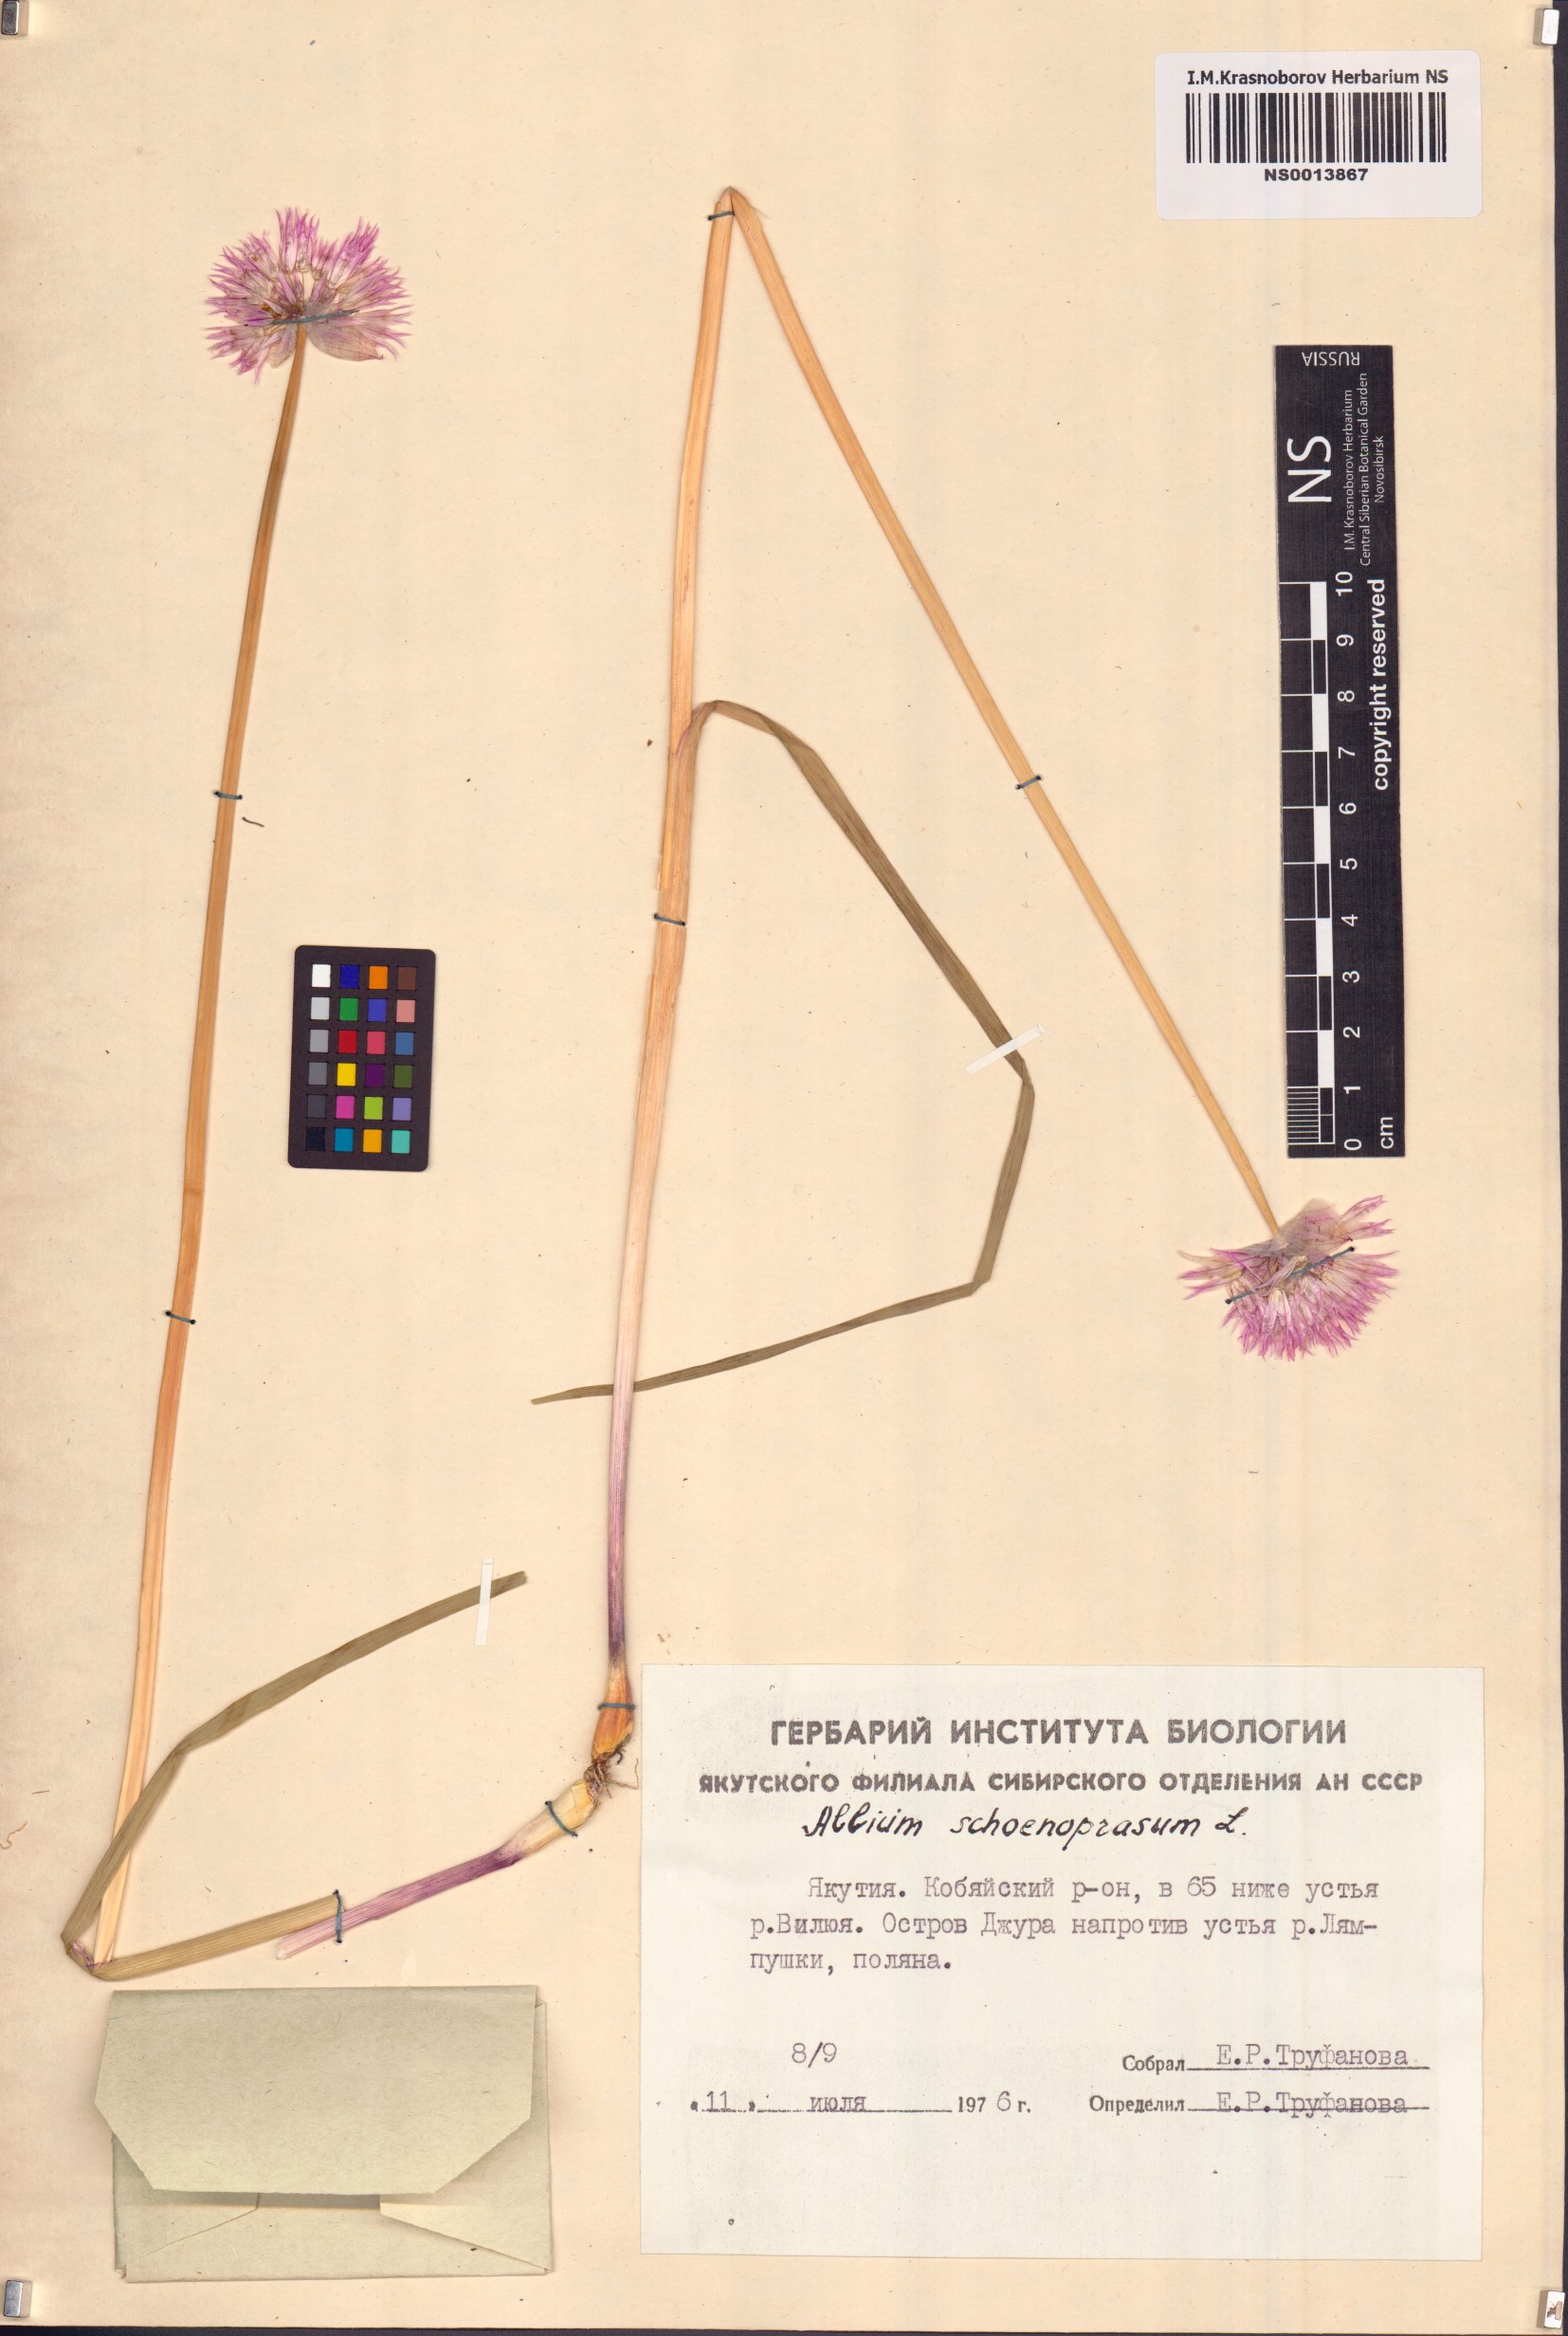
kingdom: Plantae
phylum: Tracheophyta
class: Liliopsida
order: Asparagales
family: Amaryllidaceae
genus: Allium
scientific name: Allium schoenoprasum
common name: Chives
